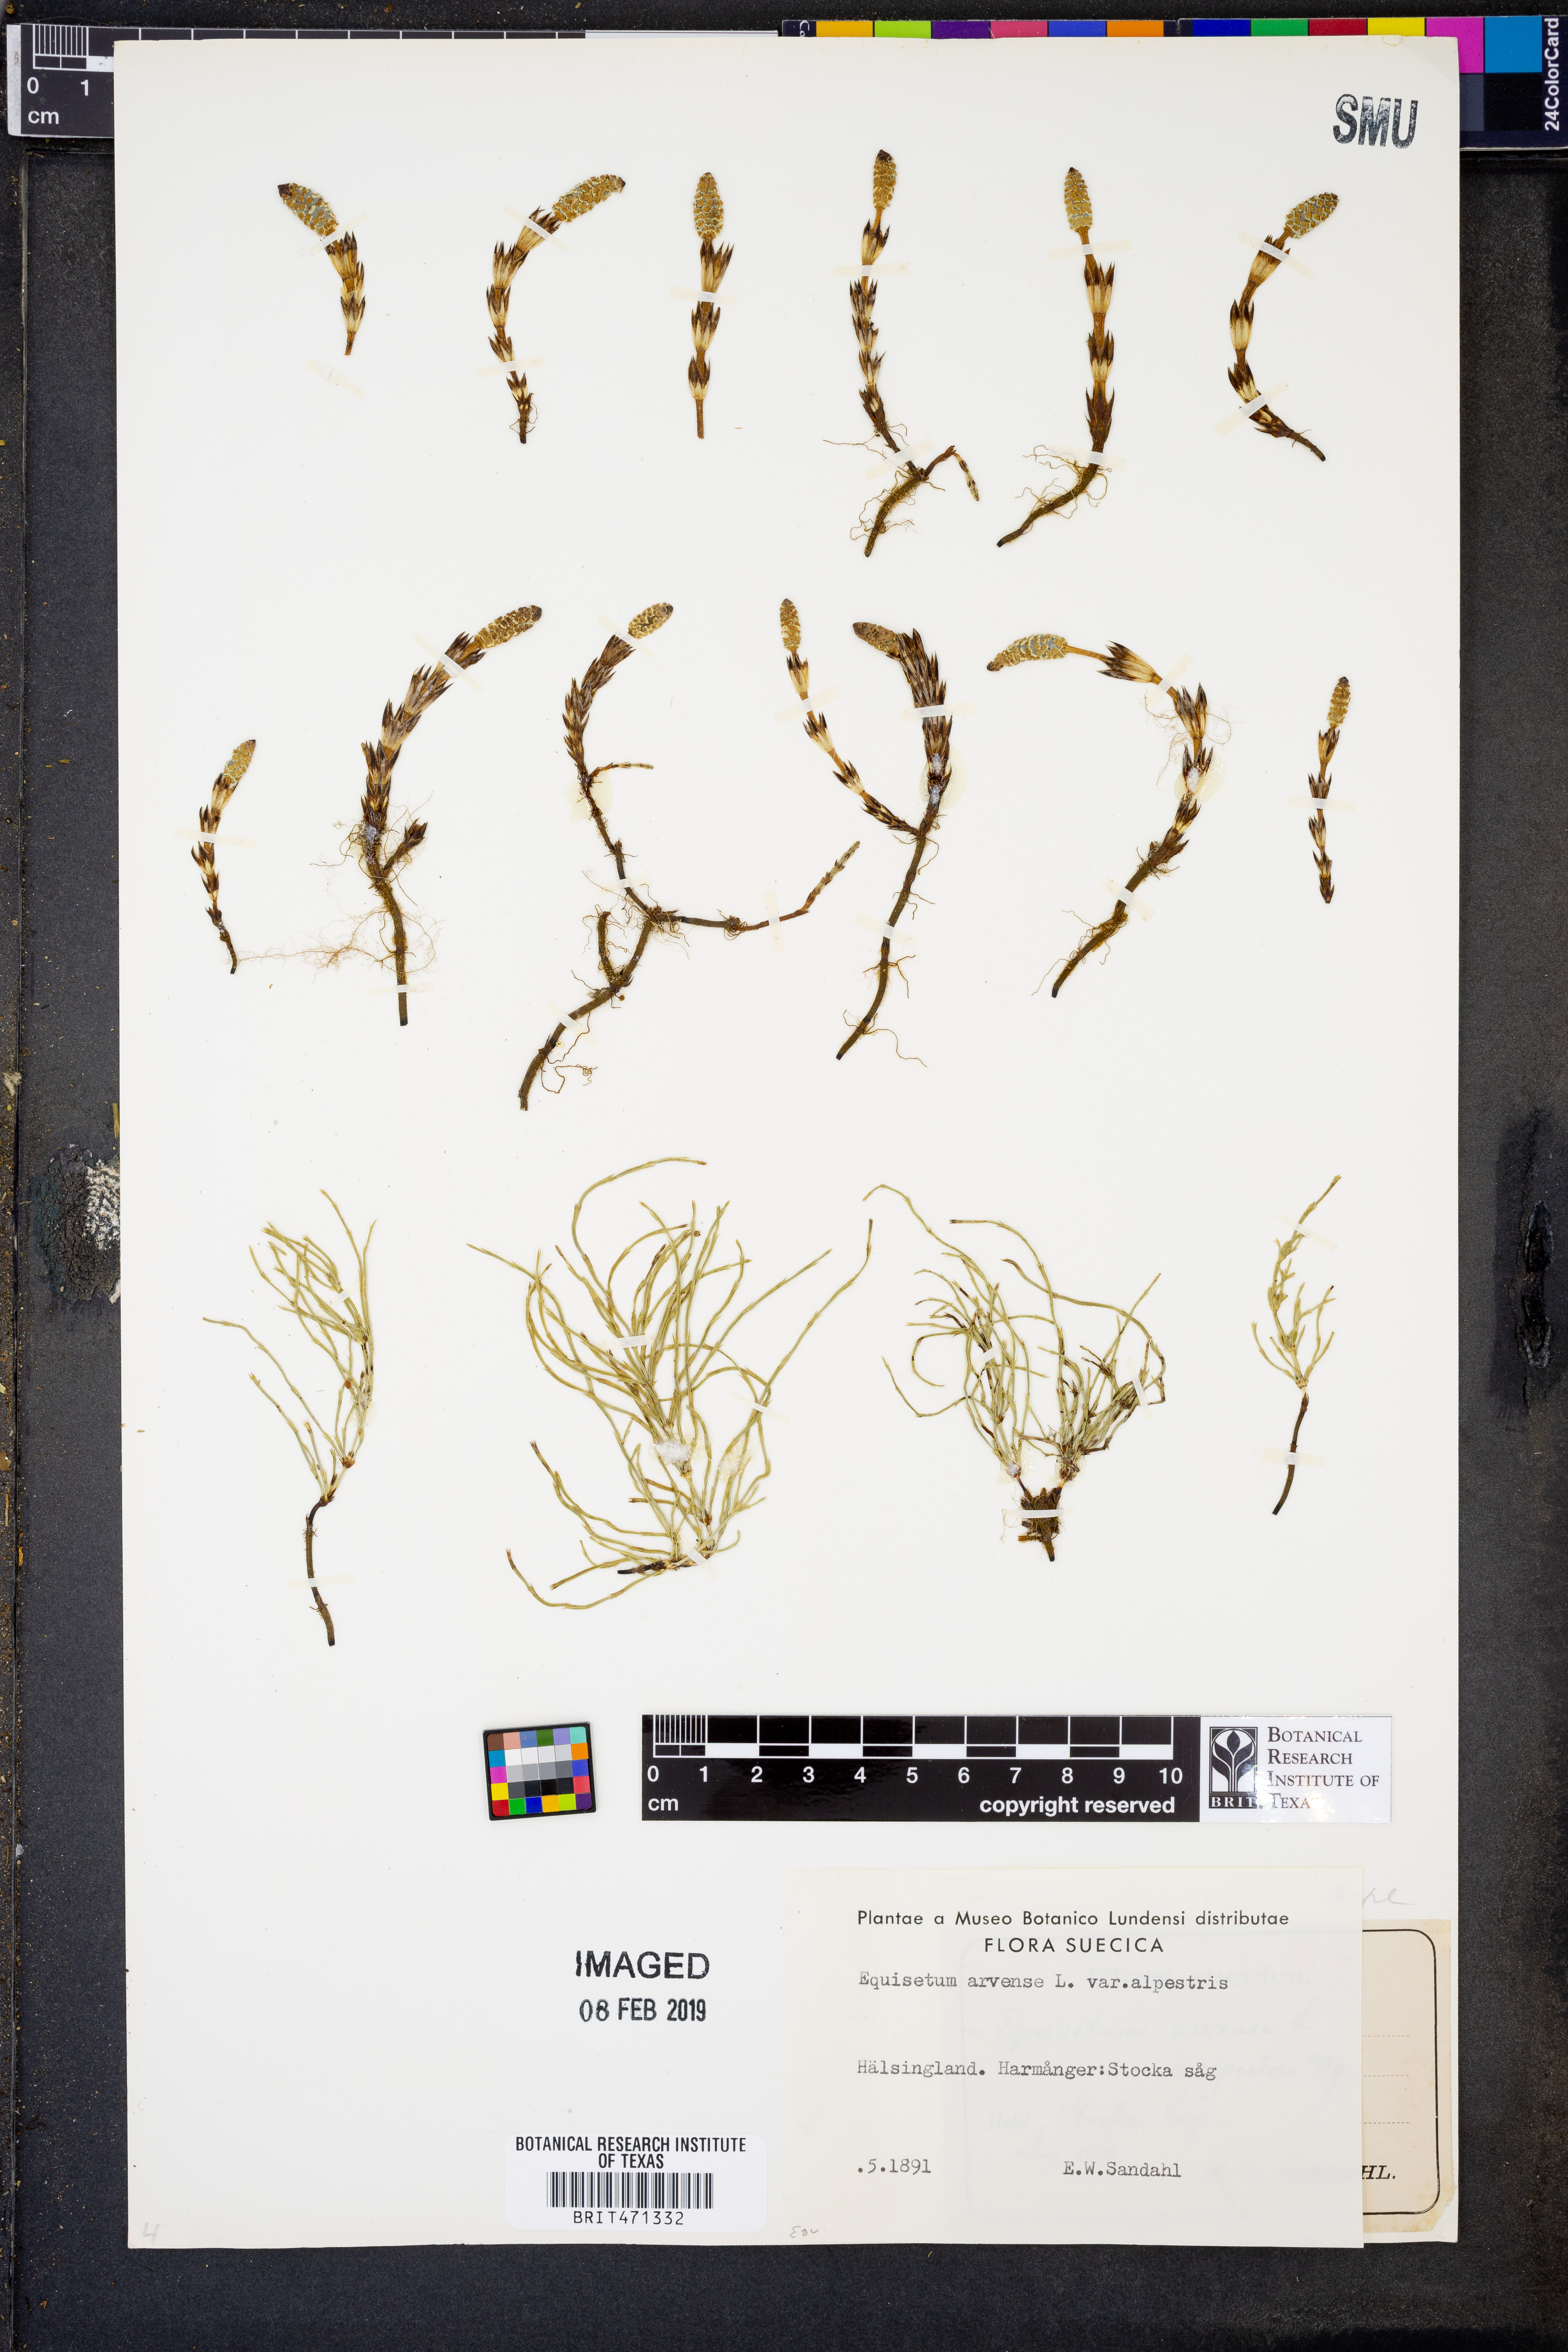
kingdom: Plantae
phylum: Tracheophyta
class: Polypodiopsida
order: Equisetales
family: Equisetaceae
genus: Equisetum
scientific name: Equisetum arvense
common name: Field horsetail
